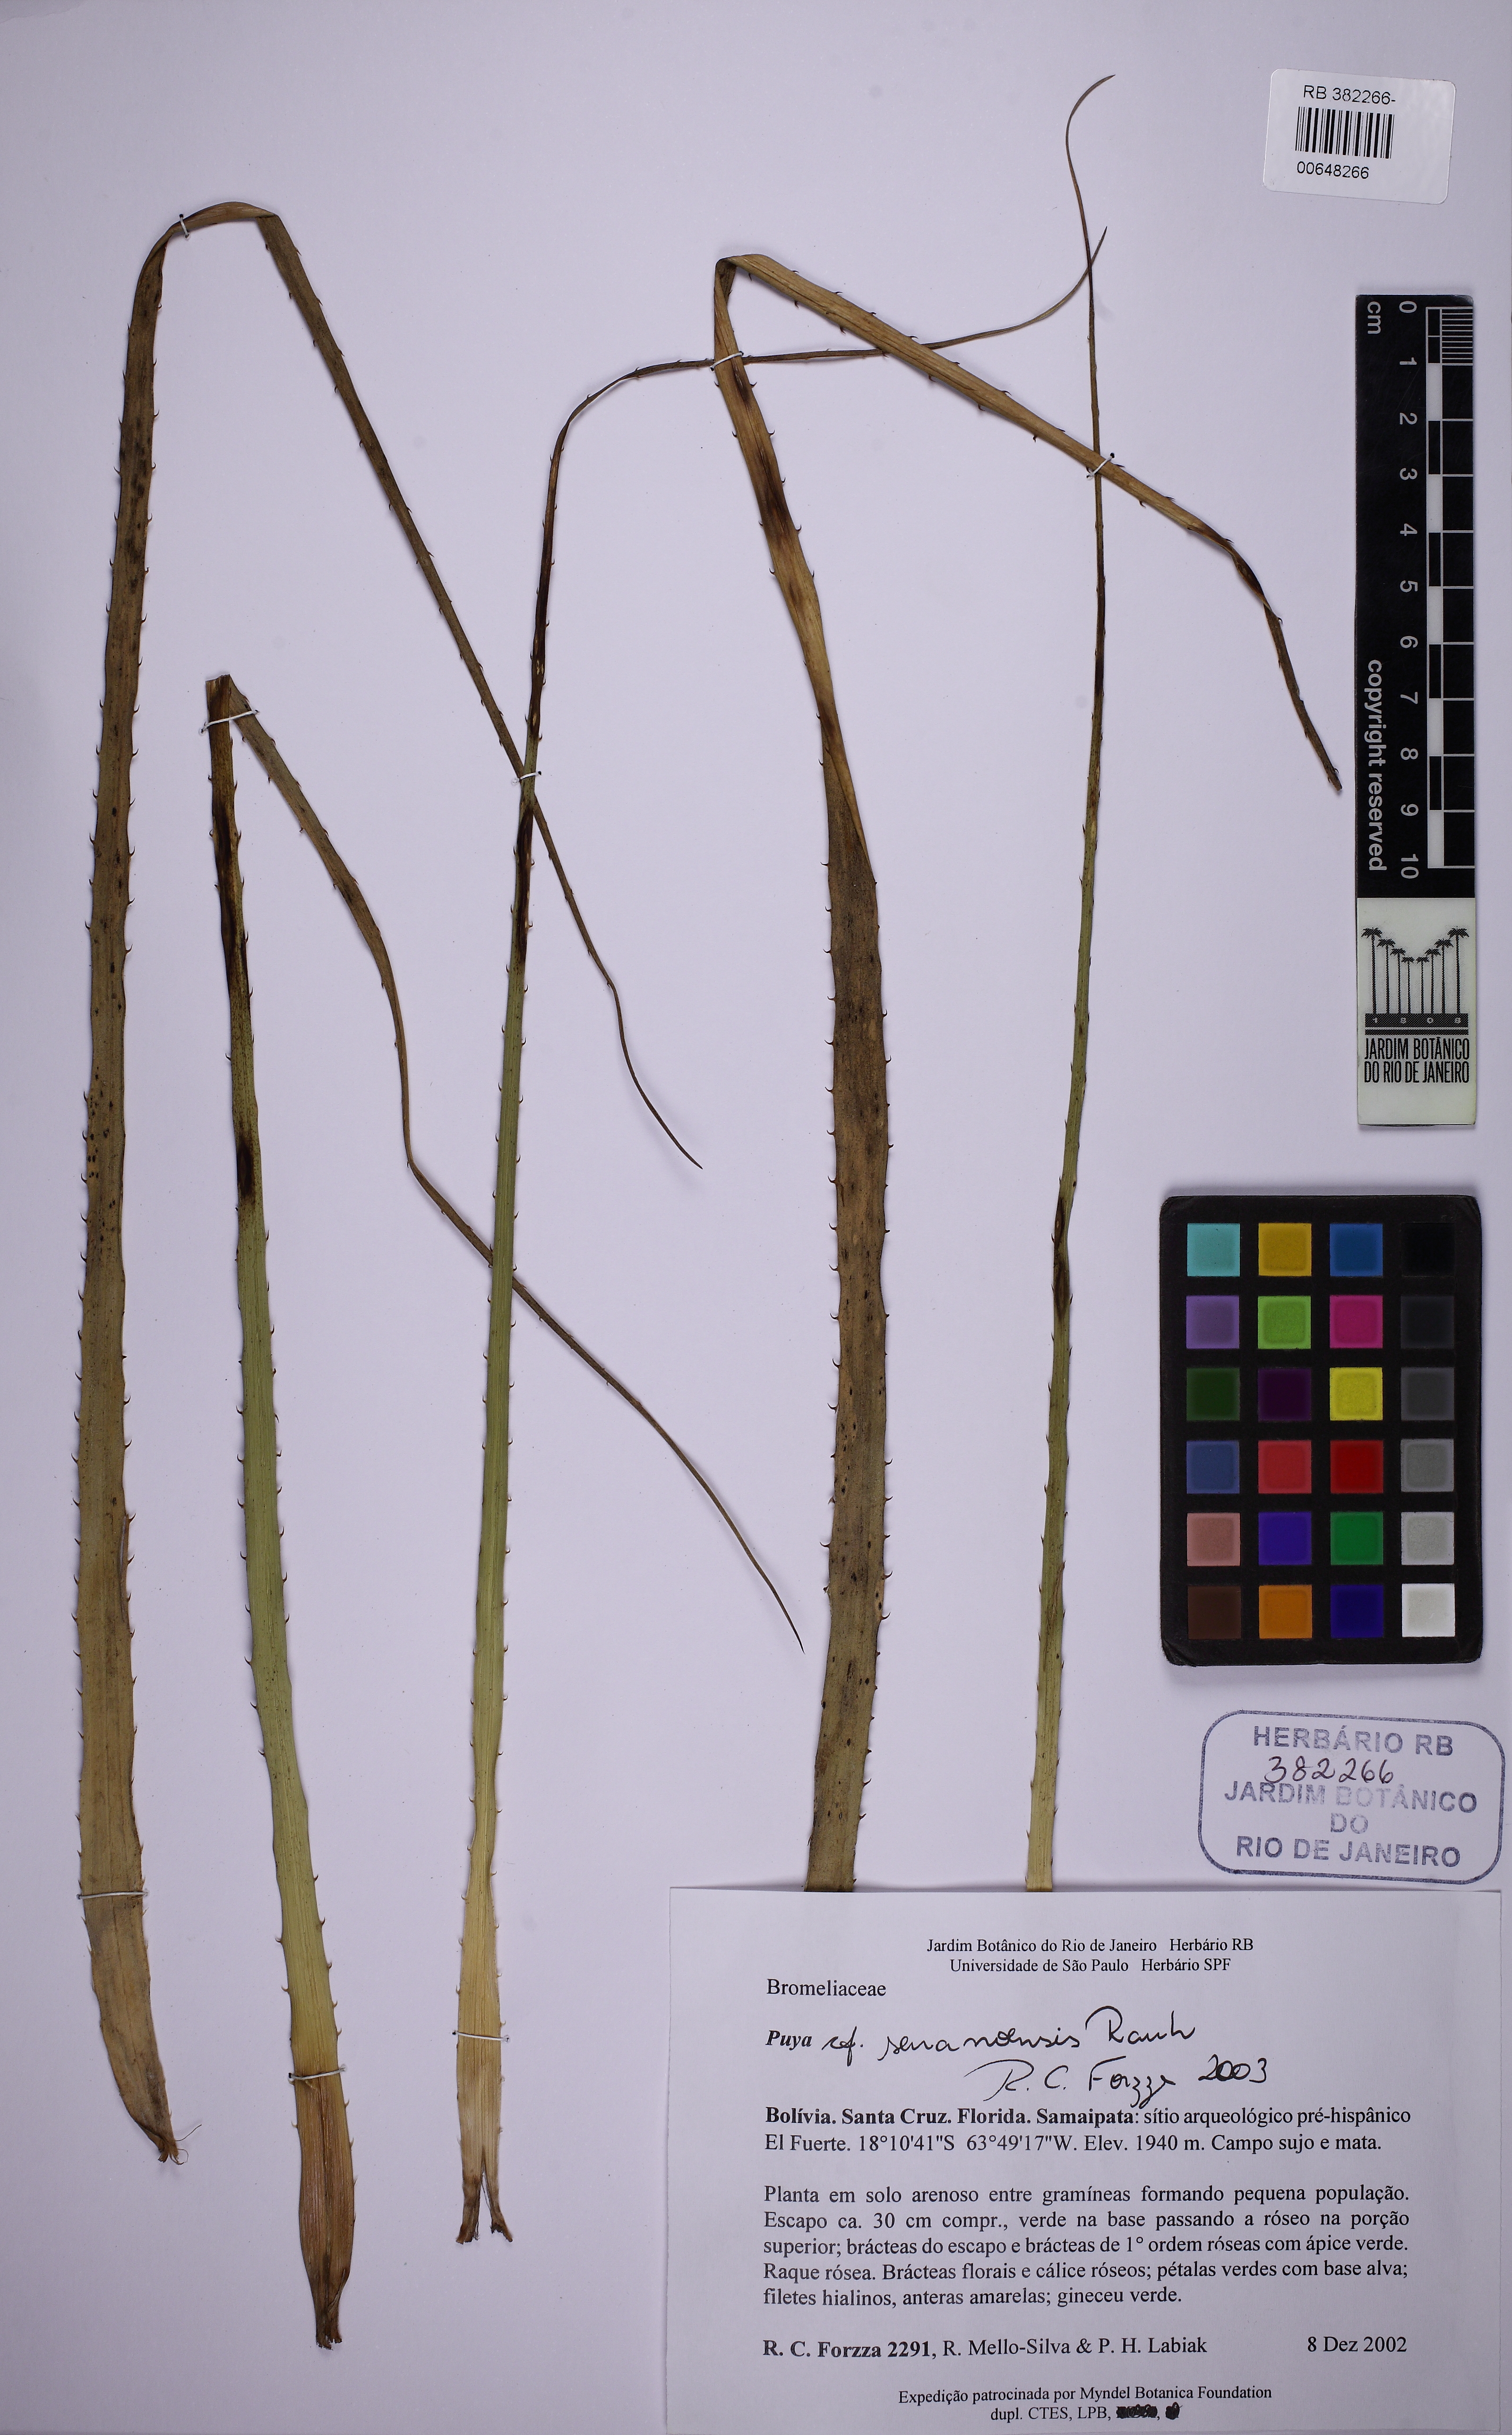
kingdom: Plantae
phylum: Tracheophyta
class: Liliopsida
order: Poales
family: Bromeliaceae
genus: Puya
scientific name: Puya serranoensis
